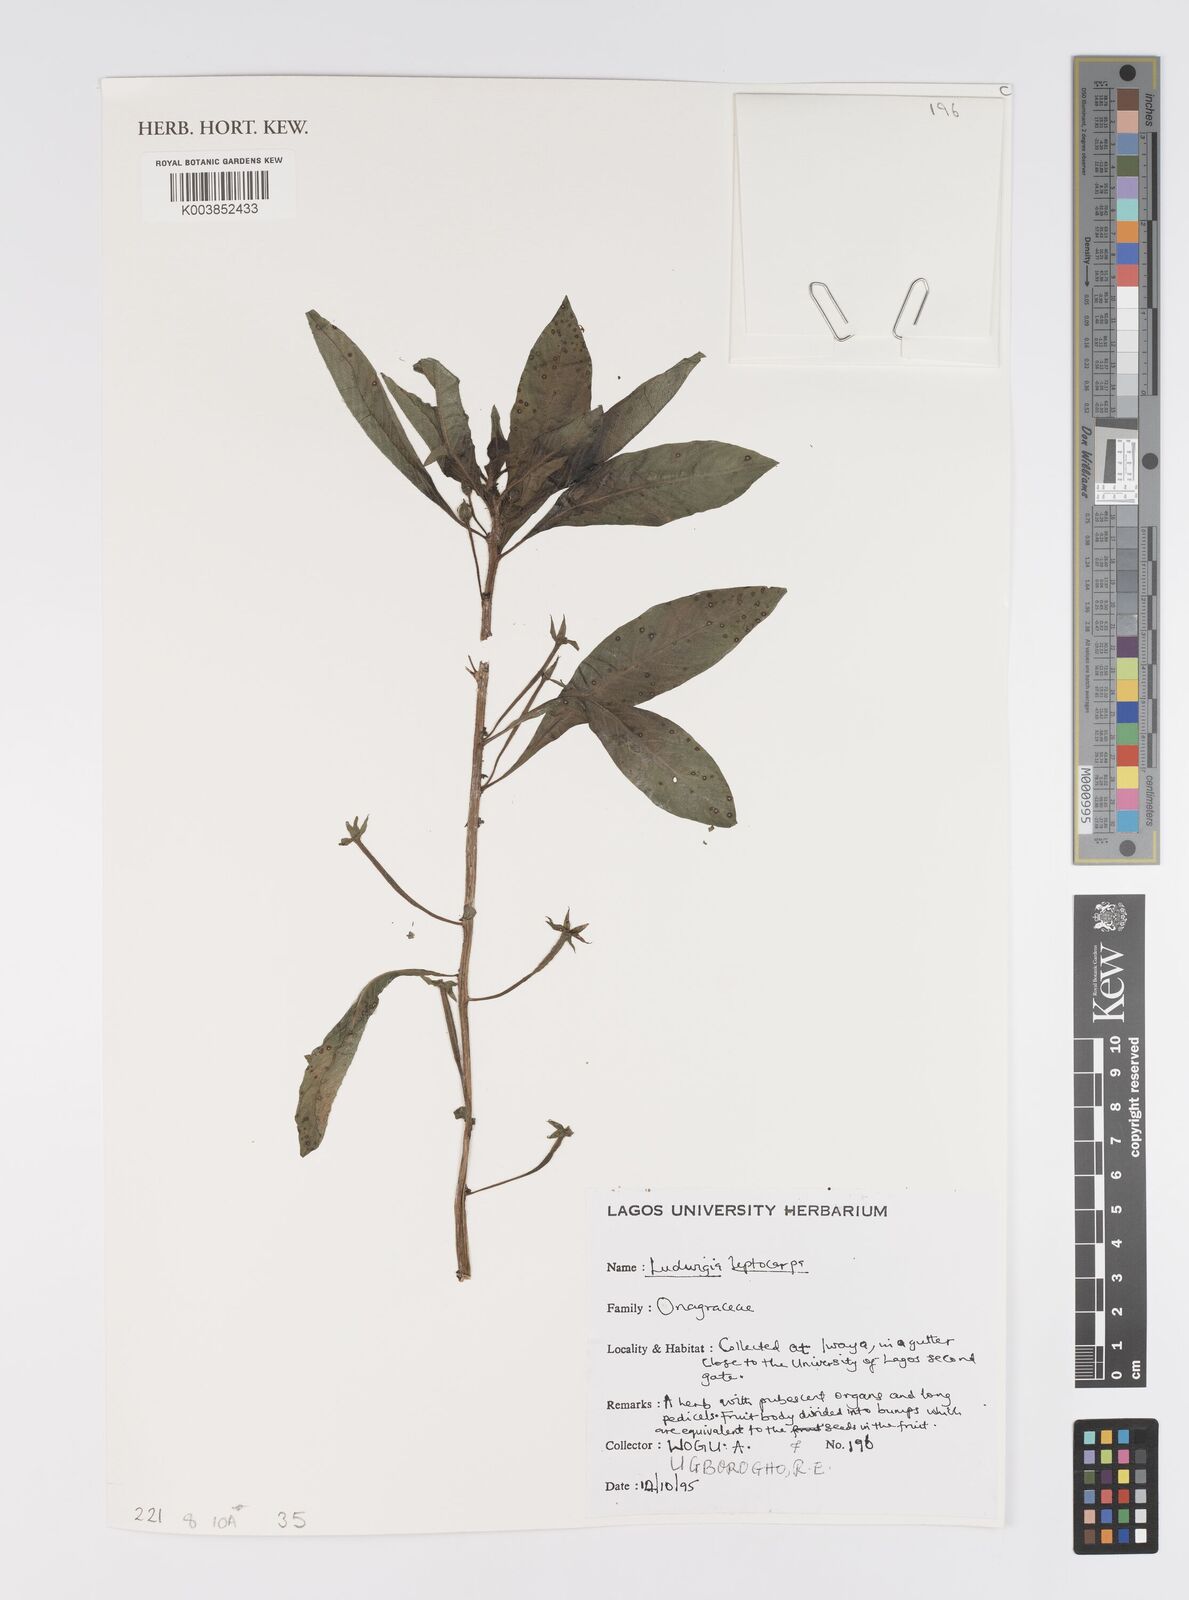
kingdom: Plantae
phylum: Tracheophyta
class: Magnoliopsida
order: Myrtales
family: Onagraceae
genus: Ludwigia
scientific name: Ludwigia leptocarpa
